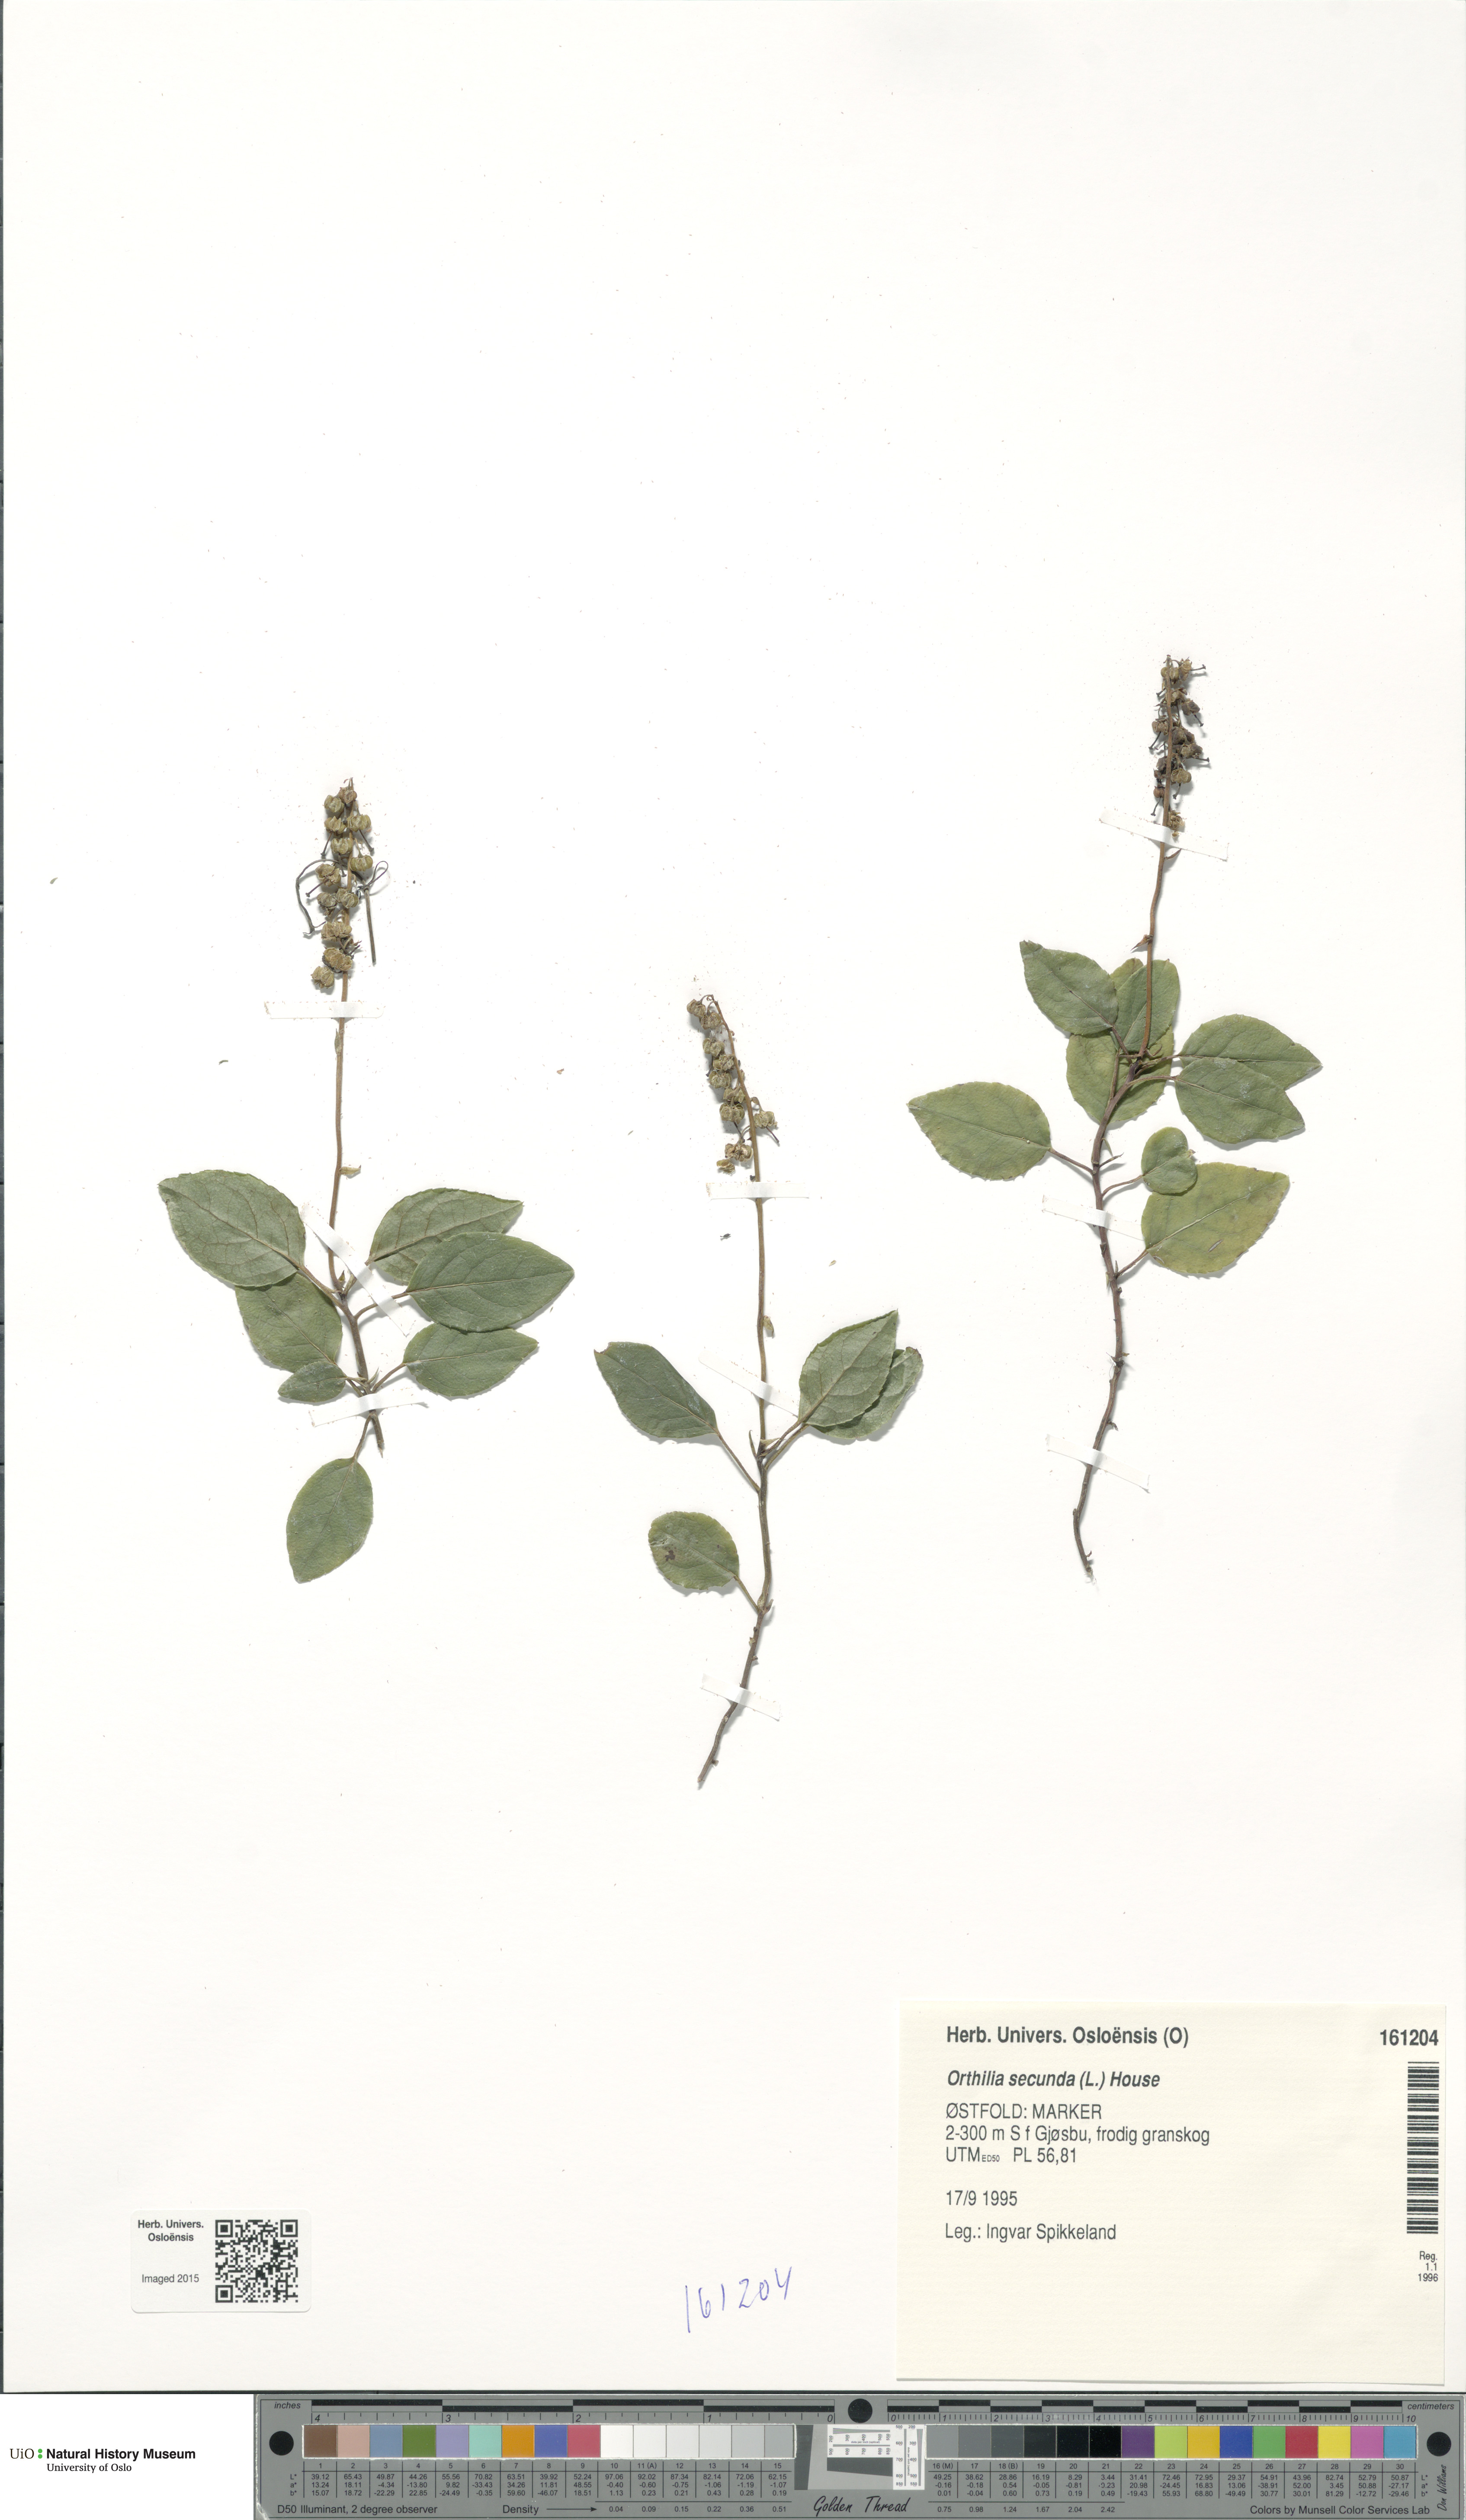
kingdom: Plantae
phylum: Tracheophyta
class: Magnoliopsida
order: Ericales
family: Ericaceae
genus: Orthilia
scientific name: Orthilia secunda
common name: One-sided orthilia
